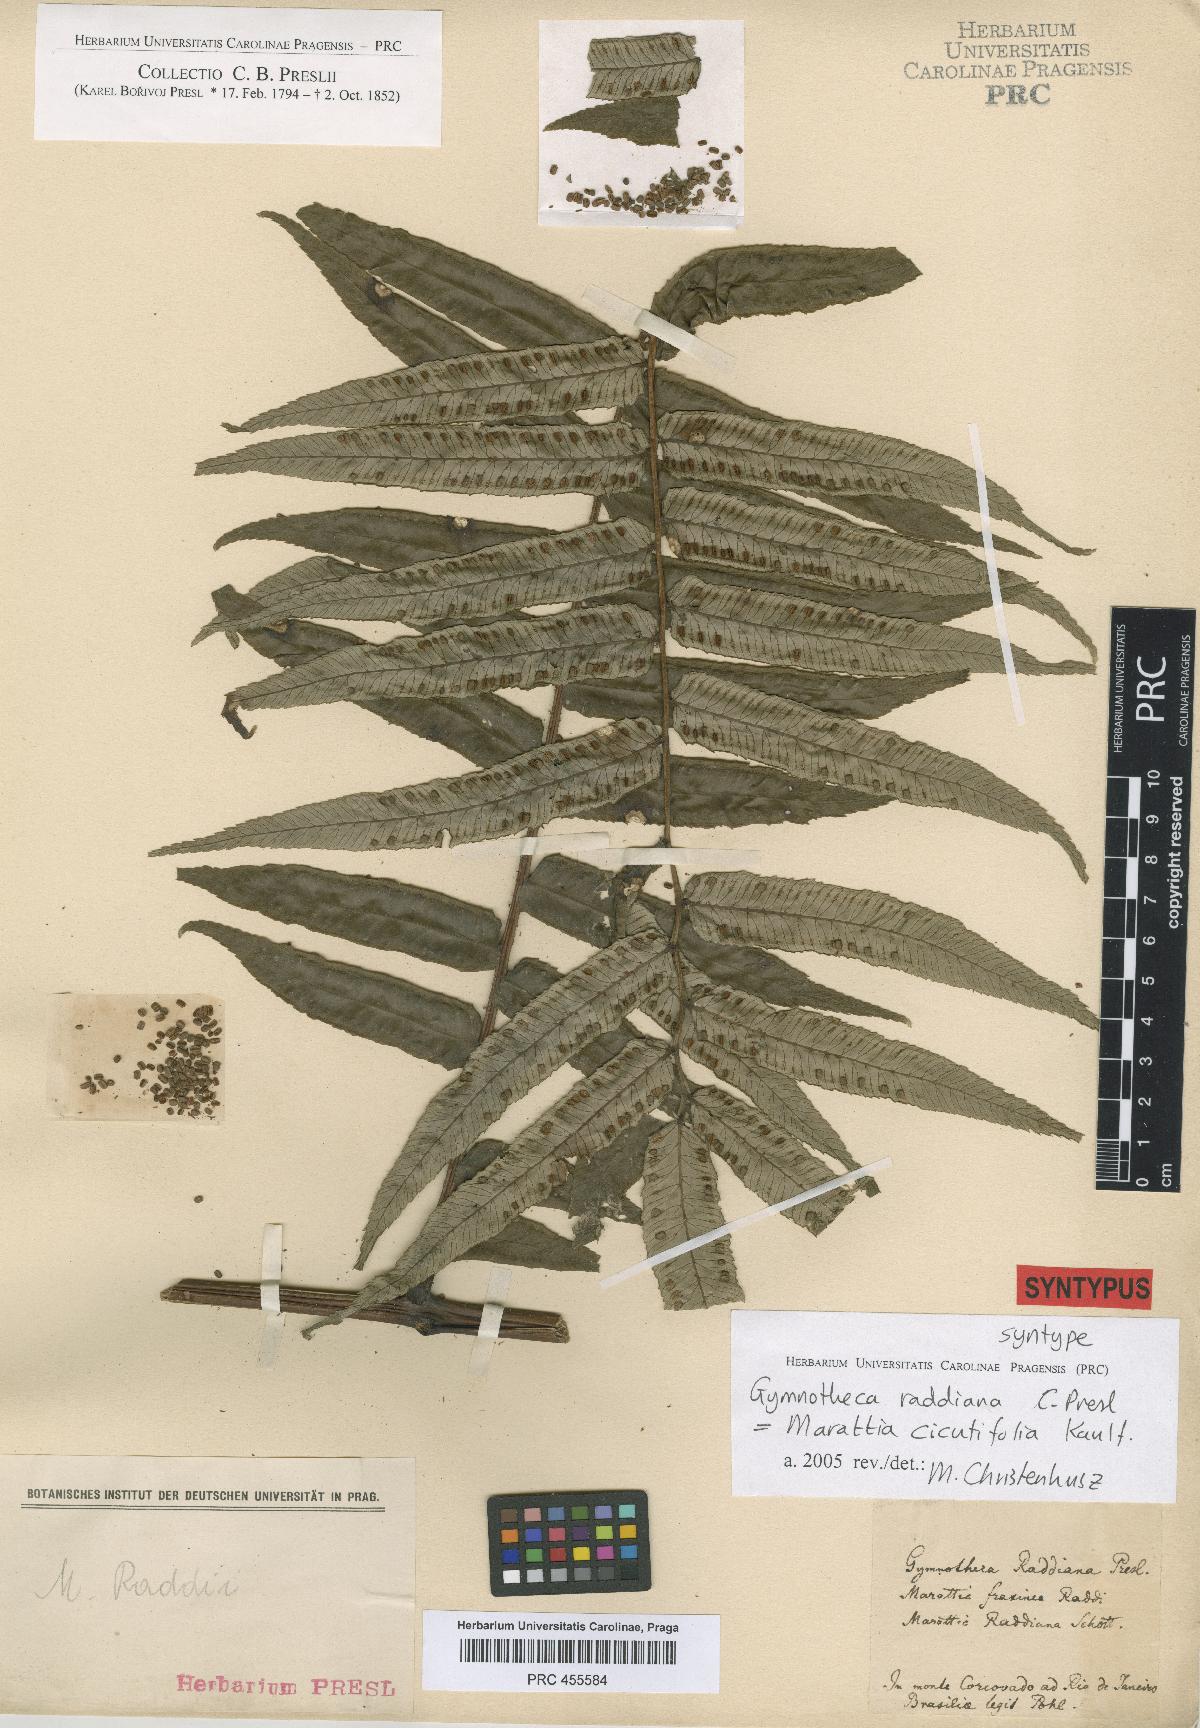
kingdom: Plantae
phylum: Tracheophyta
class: Polypodiopsida
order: Marattiales
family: Marattiaceae
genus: Eupodium
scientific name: Eupodium cicutifolium
